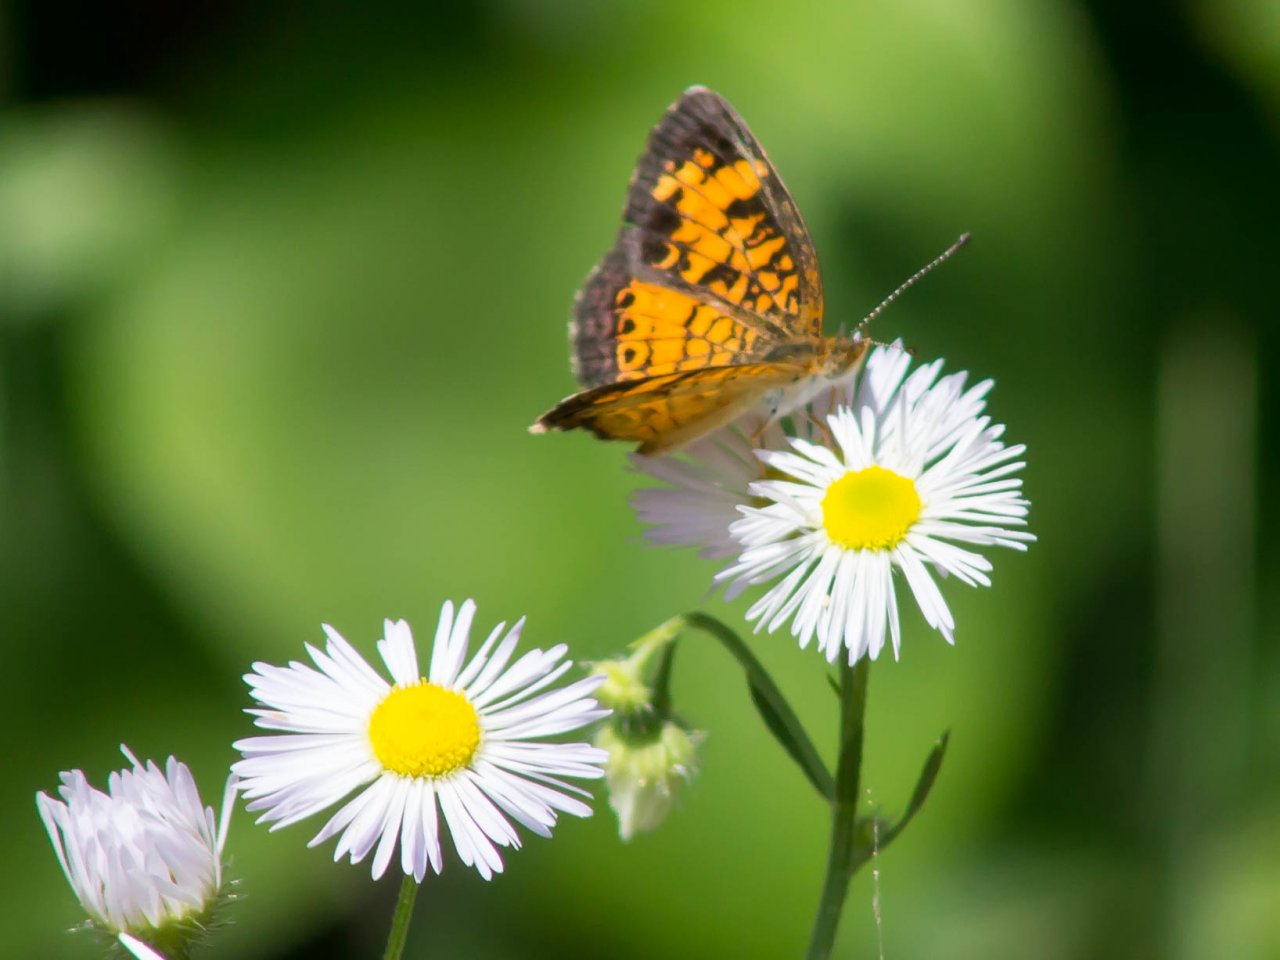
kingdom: Animalia
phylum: Arthropoda
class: Insecta
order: Lepidoptera
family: Nymphalidae
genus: Phyciodes
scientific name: Phyciodes tharos
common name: Pearl Crescent
